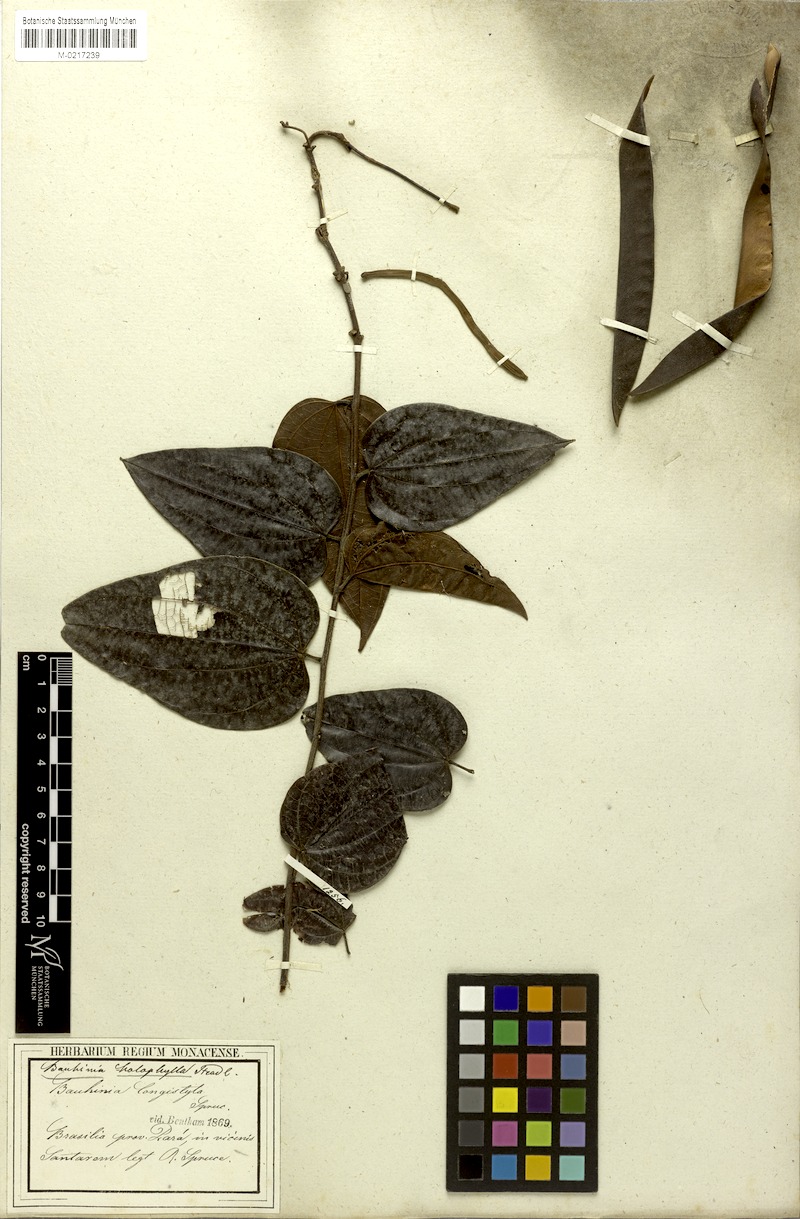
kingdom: Plantae
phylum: Tracheophyta
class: Magnoliopsida
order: Fabales
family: Fabaceae
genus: Bauhinia
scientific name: Bauhinia holophylla
